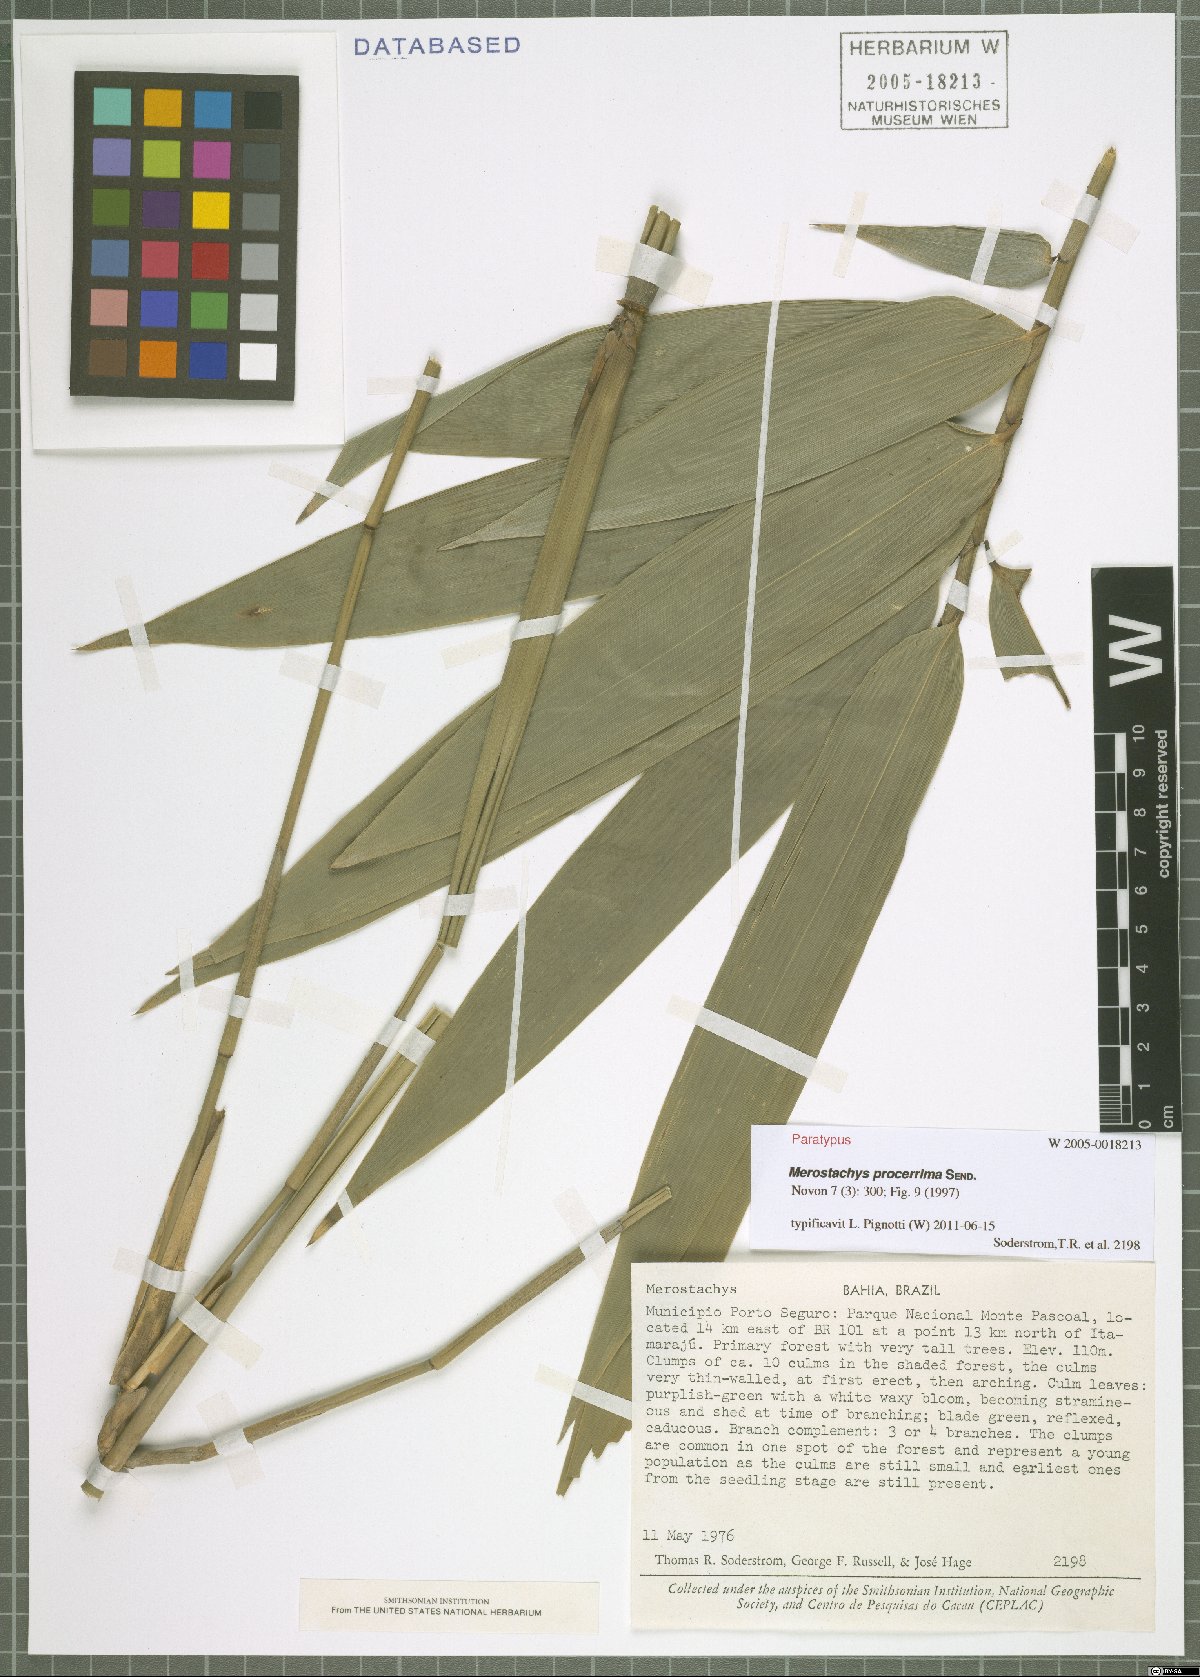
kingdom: Plantae
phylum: Tracheophyta
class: Liliopsida
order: Poales
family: Poaceae
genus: Merostachys
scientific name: Merostachys procerrima
